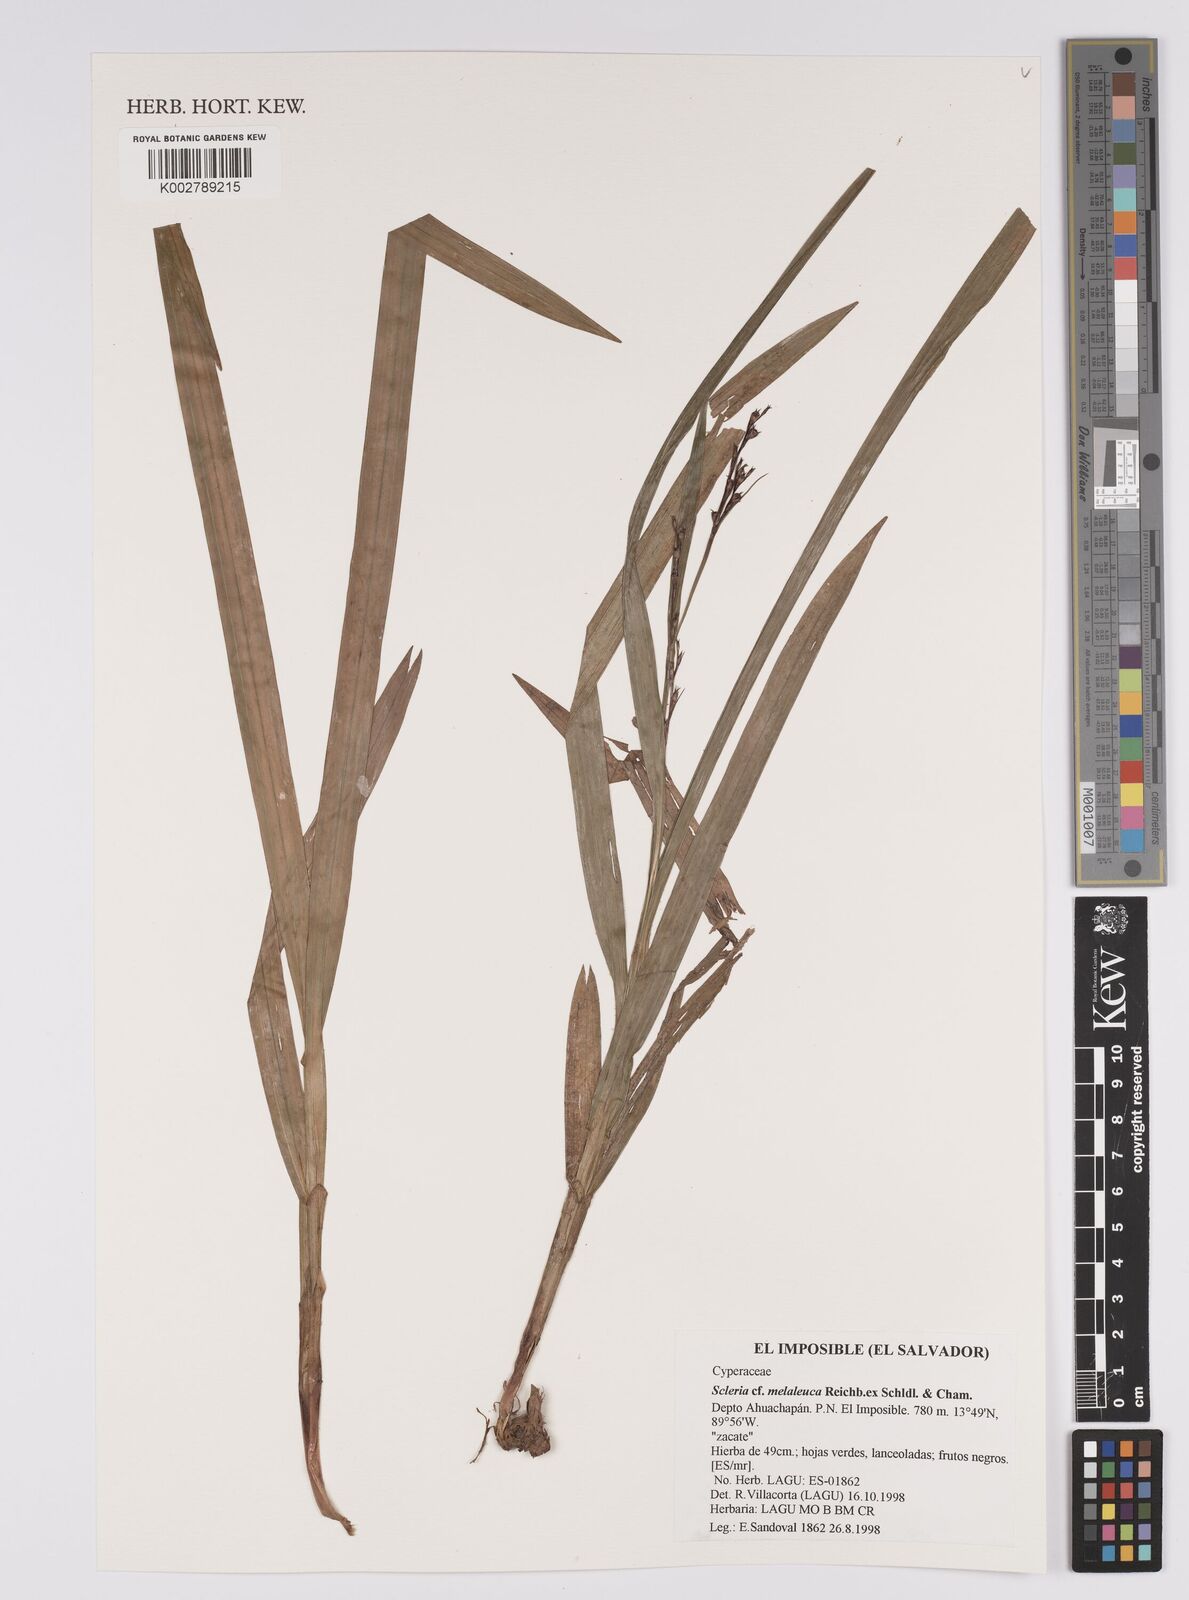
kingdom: Plantae
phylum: Tracheophyta
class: Liliopsida
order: Poales
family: Cyperaceae
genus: Scleria
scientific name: Scleria gaertneri
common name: Cortadera blanca
